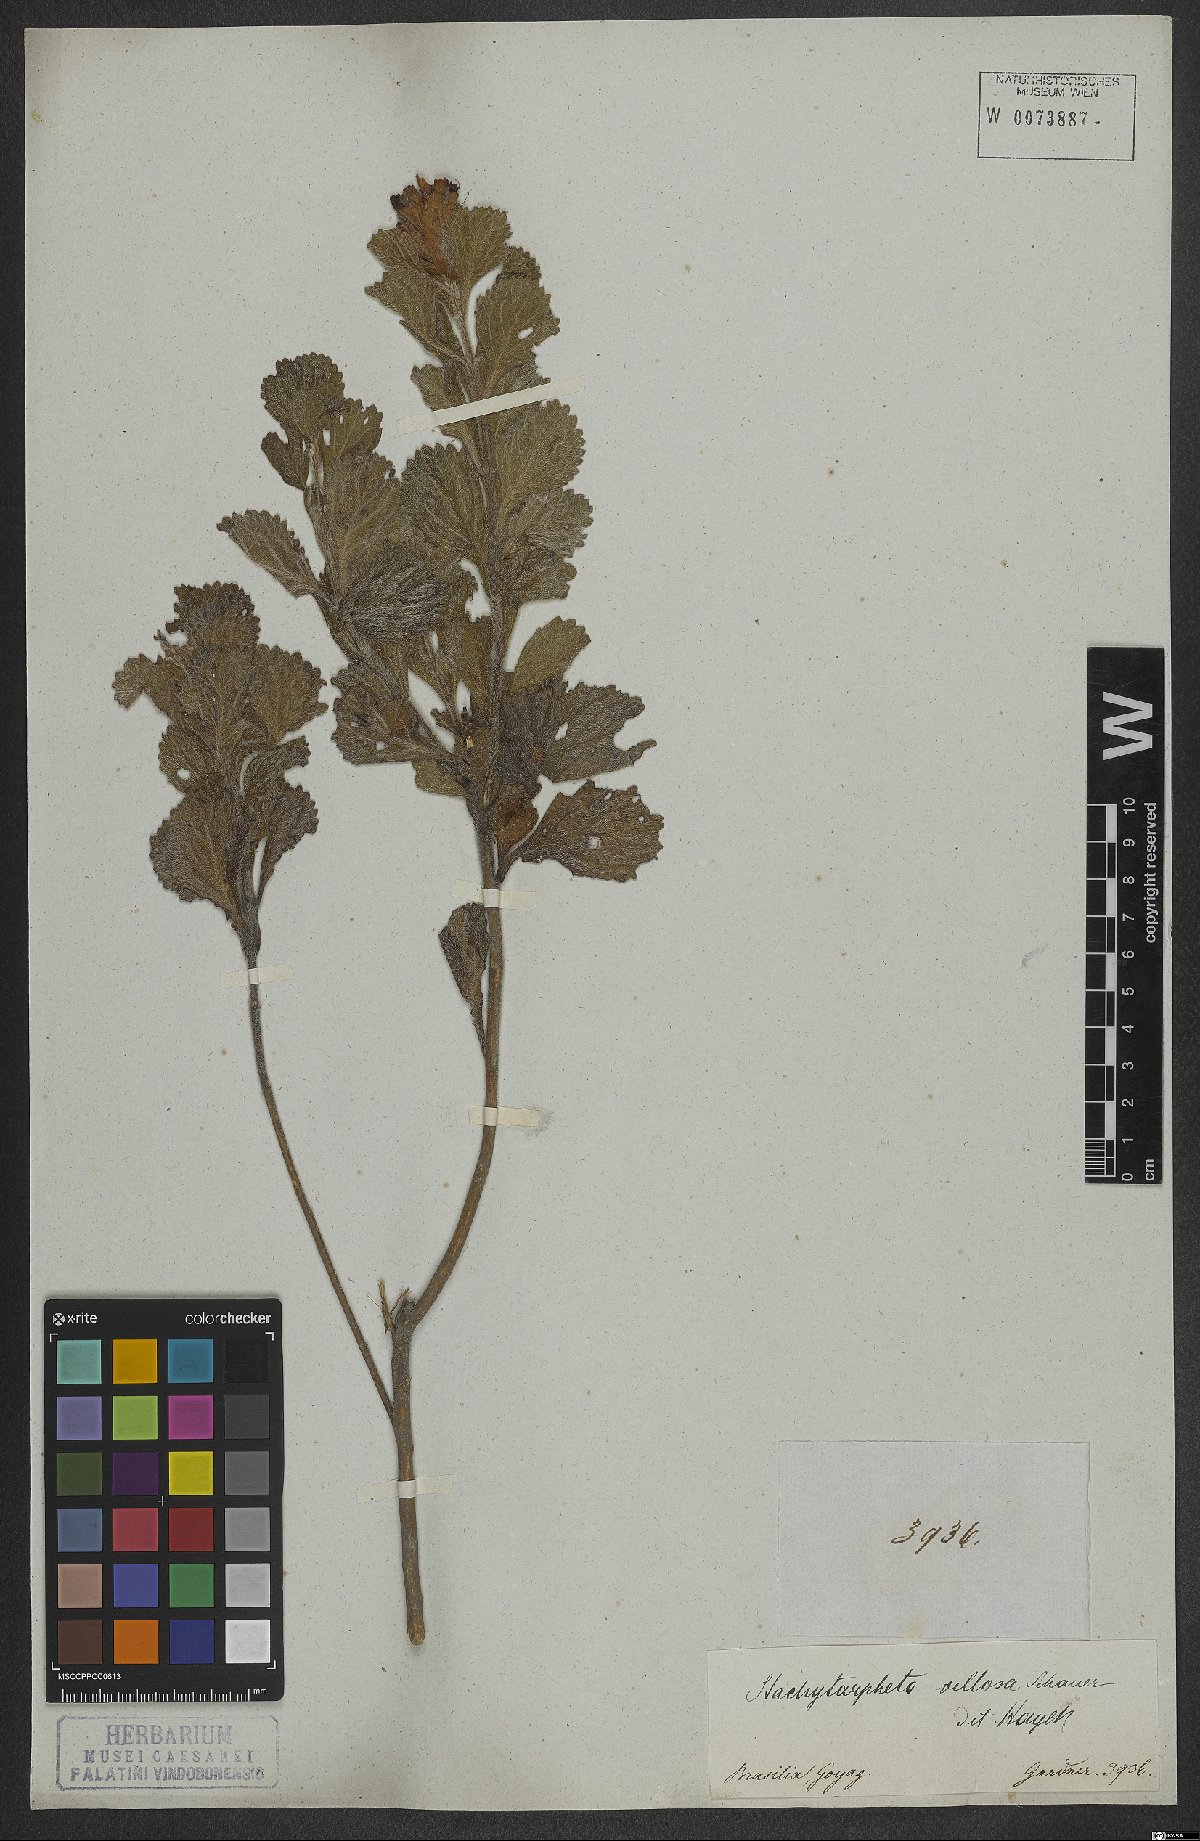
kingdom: Plantae
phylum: Tracheophyta
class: Magnoliopsida
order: Lamiales
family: Verbenaceae
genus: Stachytarpheta
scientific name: Stachytarpheta villosa
